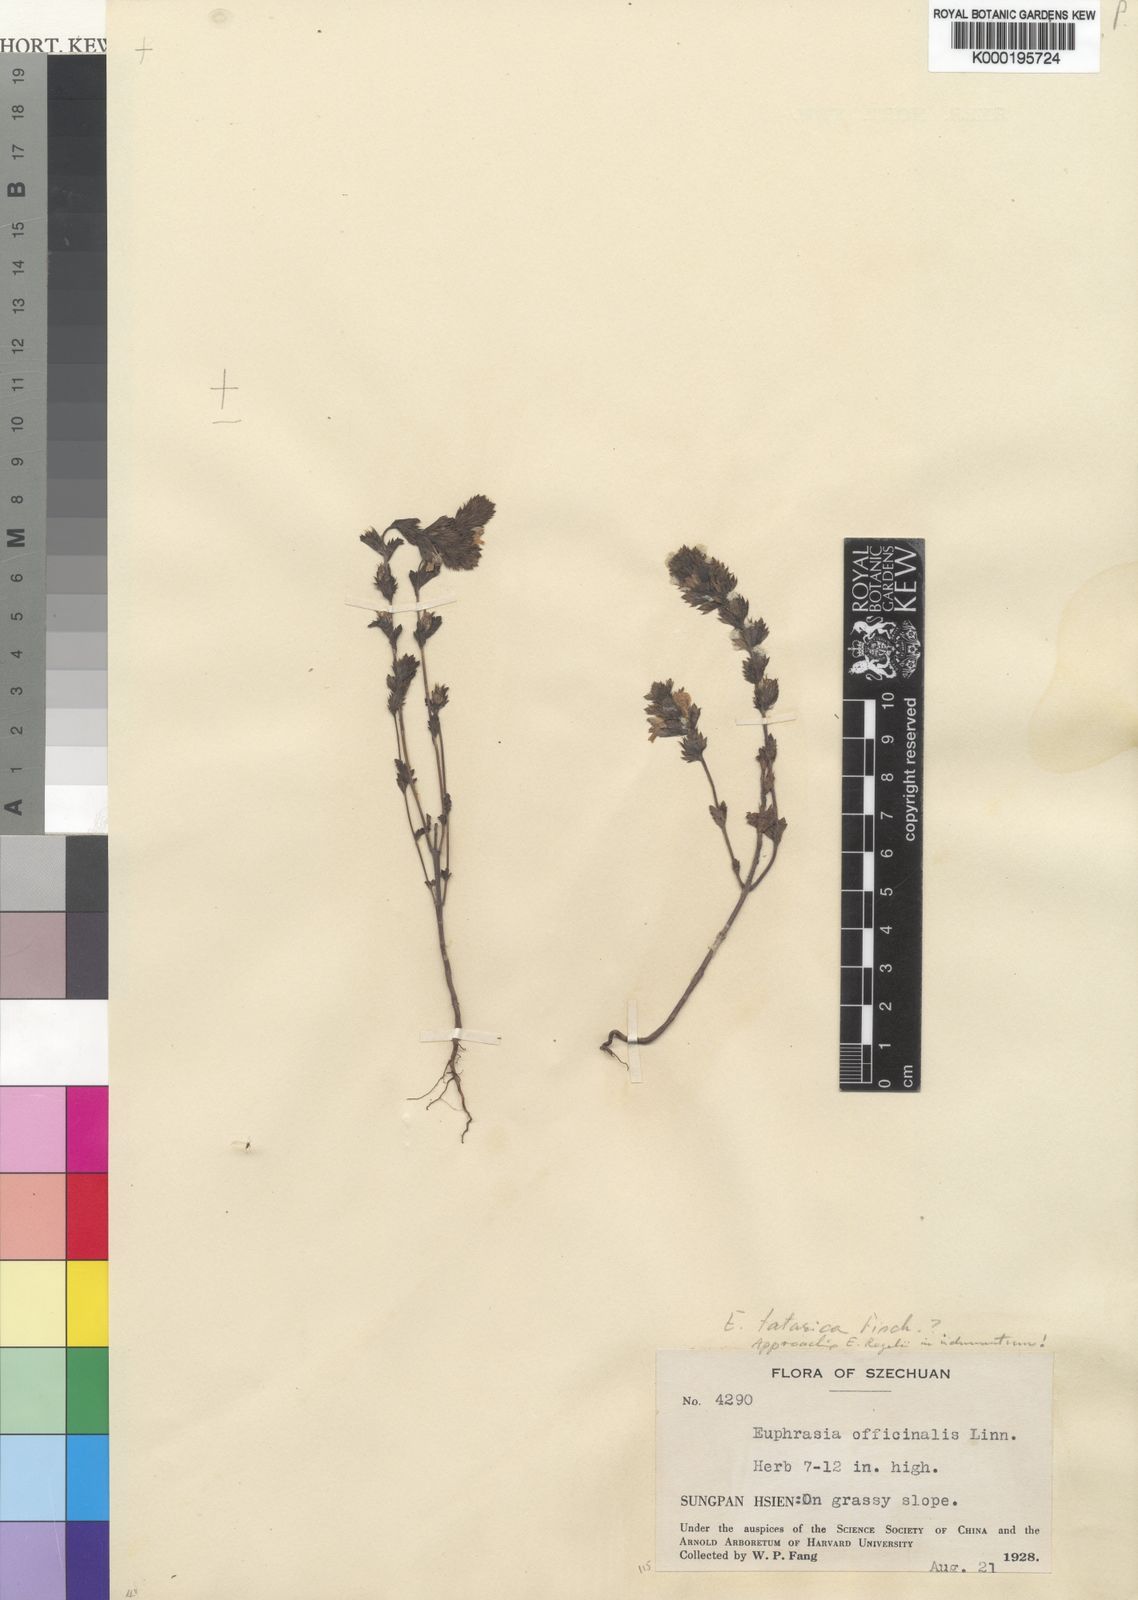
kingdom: Plantae
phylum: Tracheophyta
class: Magnoliopsida
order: Lamiales
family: Orobanchaceae
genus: Euphrasia
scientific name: Euphrasia
